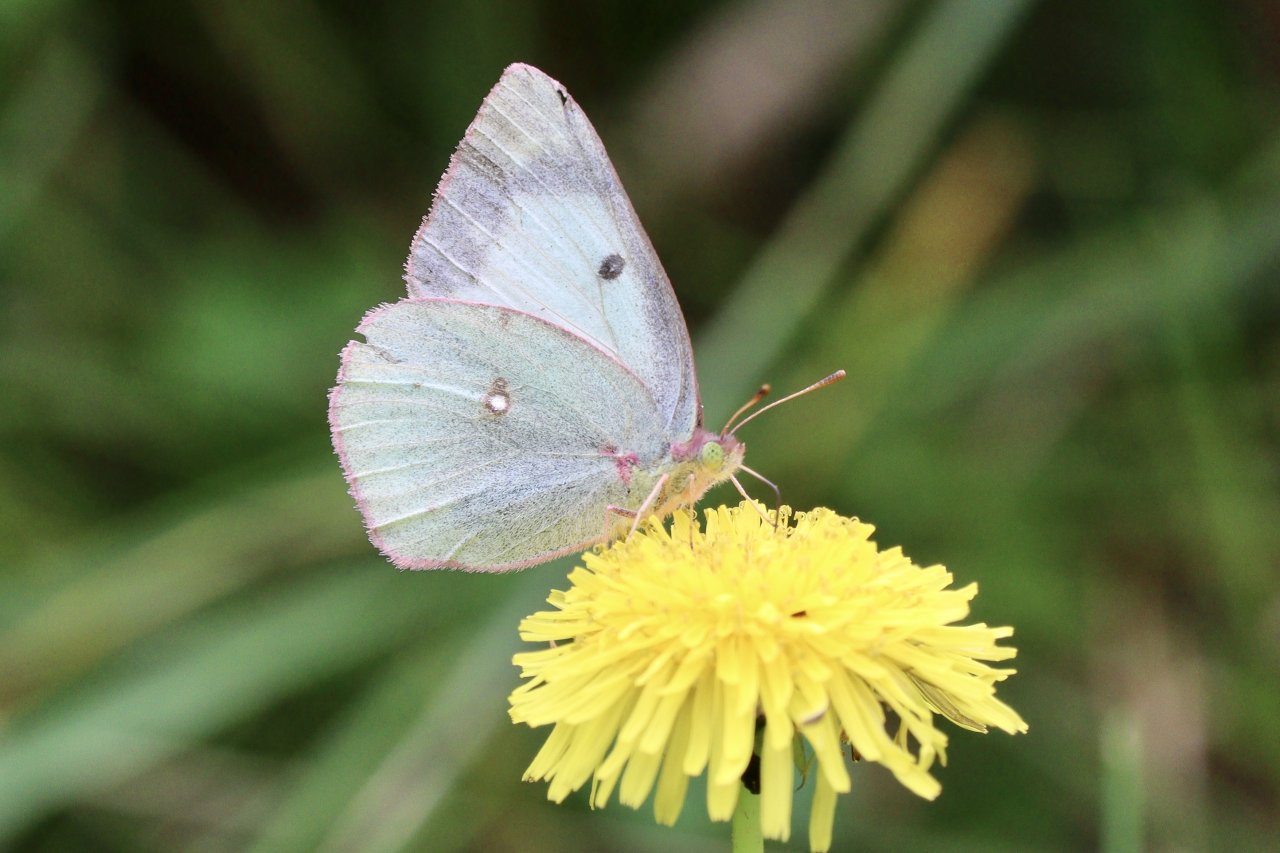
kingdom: Animalia
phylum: Arthropoda
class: Insecta
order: Lepidoptera
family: Pieridae
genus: Colias
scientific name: Colias philodice
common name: Clouded Sulphur
